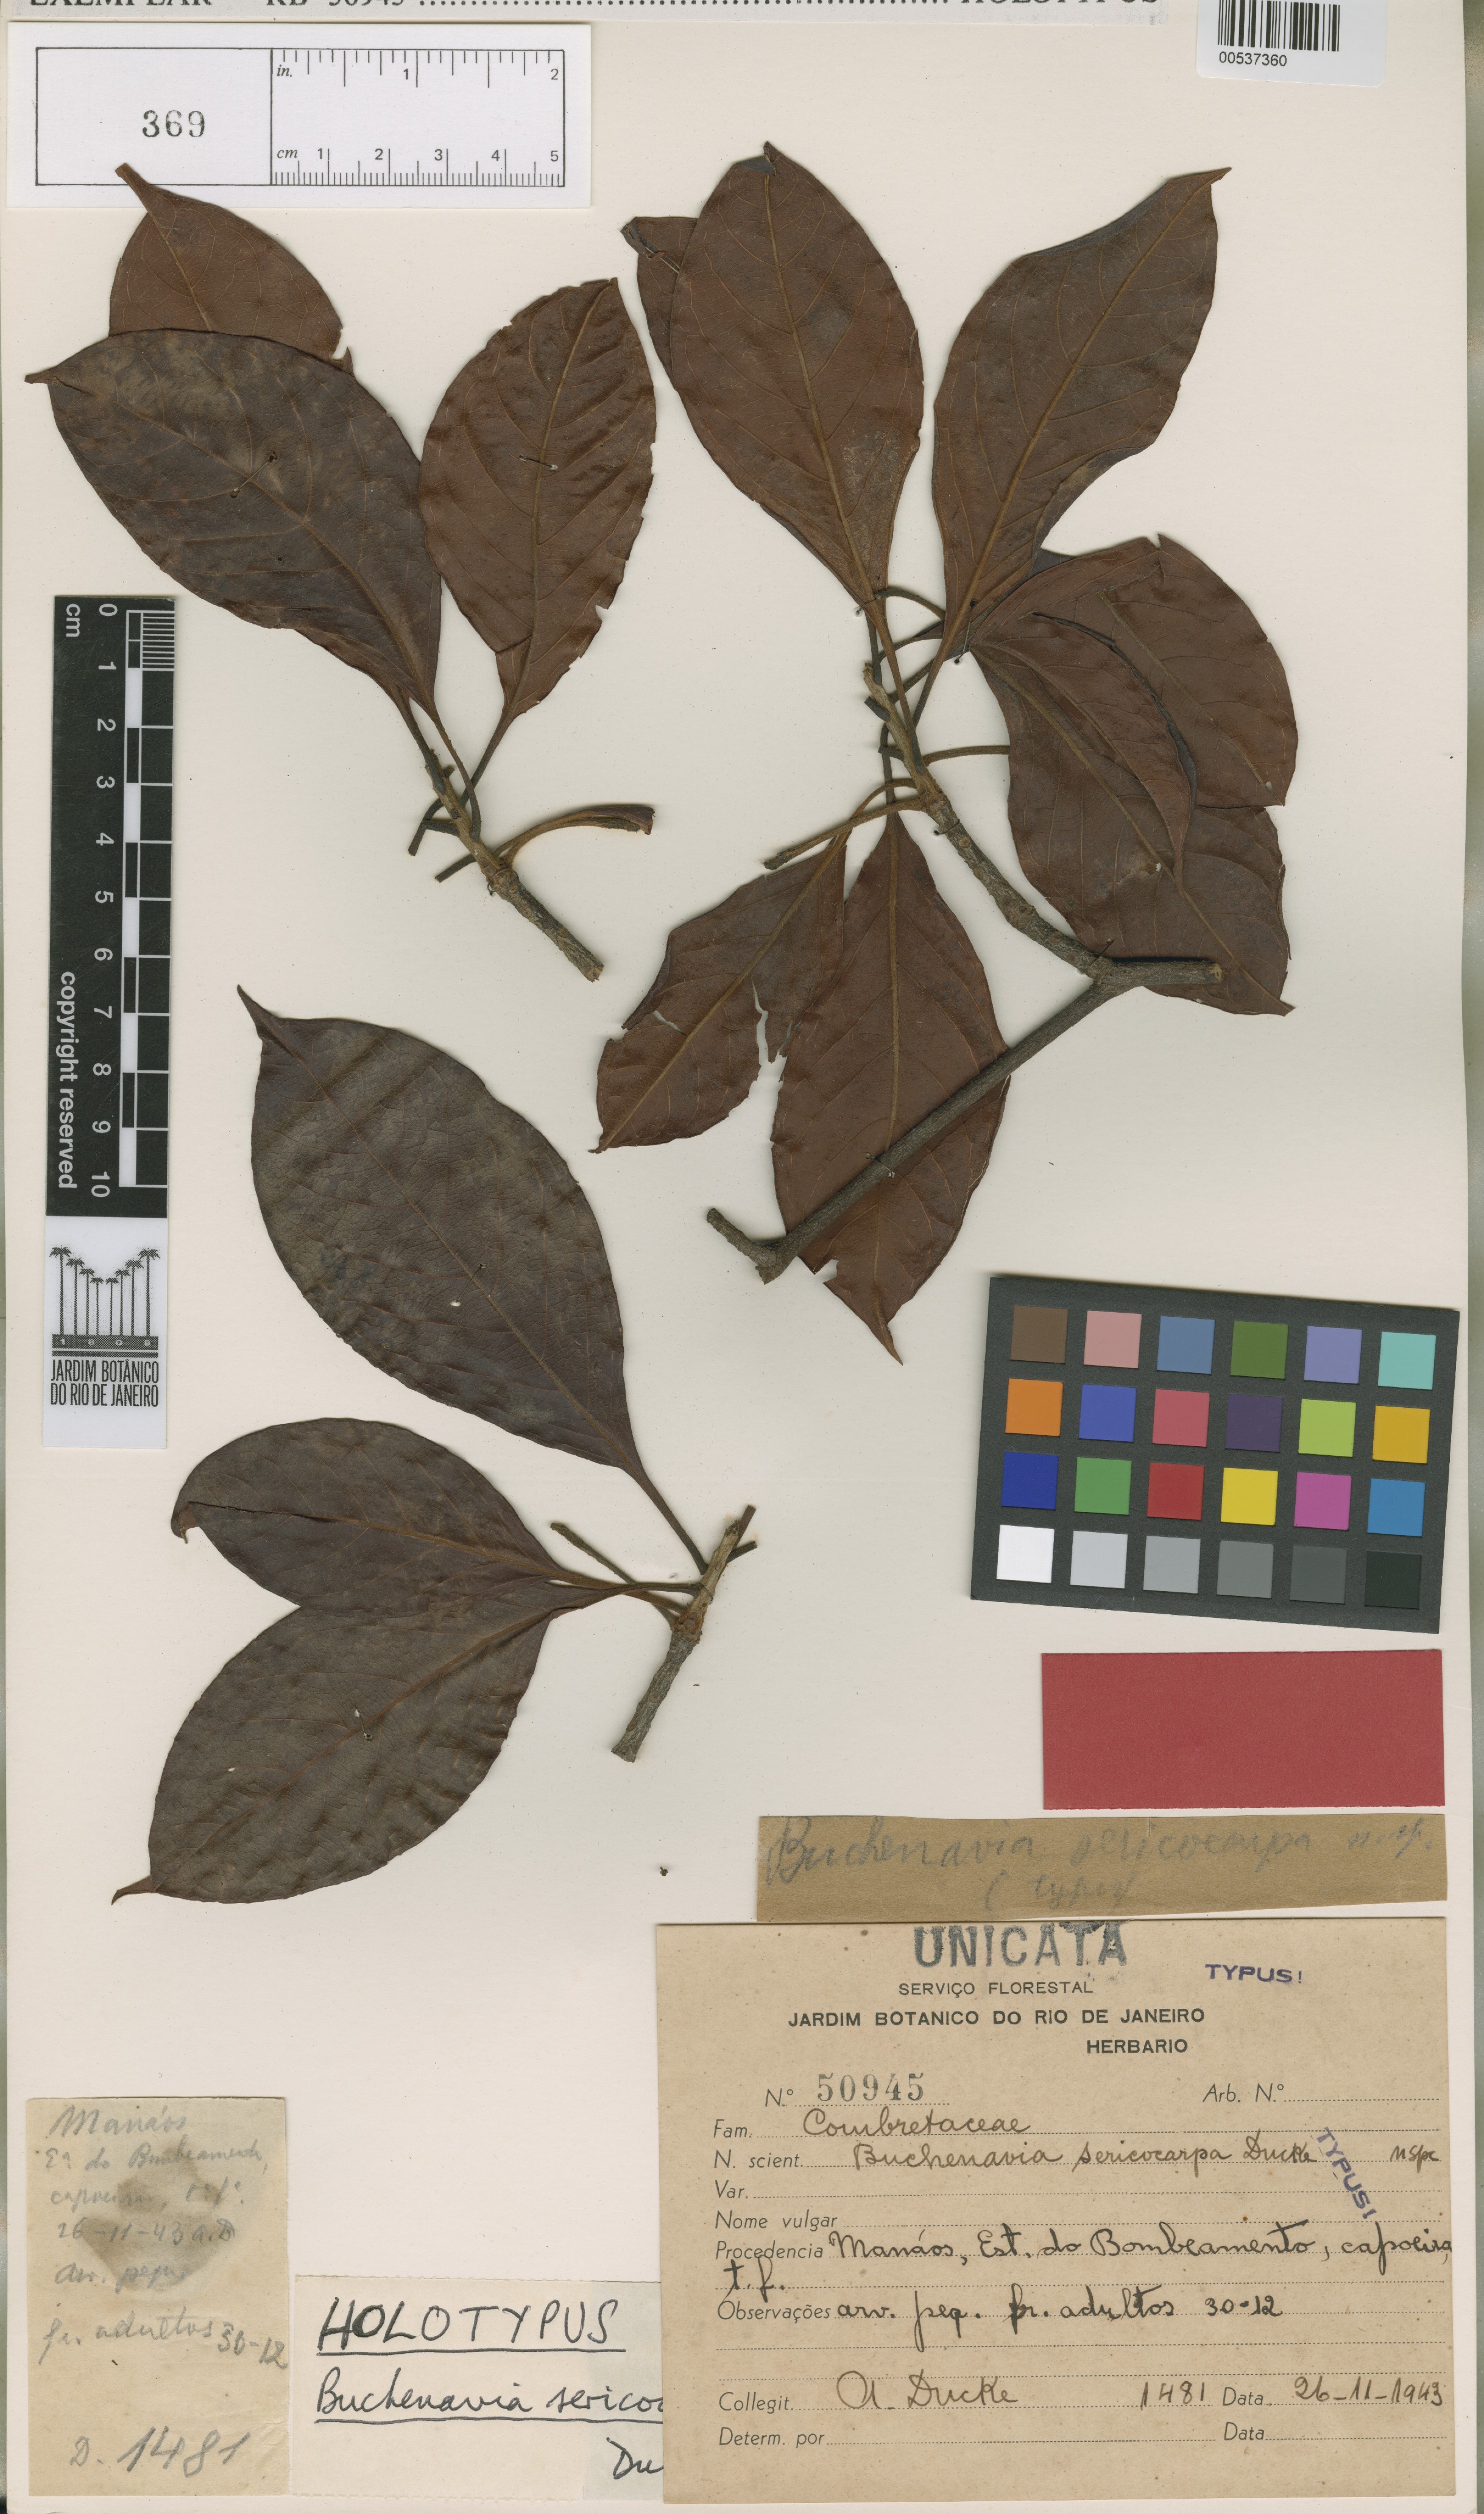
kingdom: Plantae
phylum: Tracheophyta
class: Magnoliopsida
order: Myrtales
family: Combretaceae
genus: Terminalia
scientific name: Terminalia duckei
